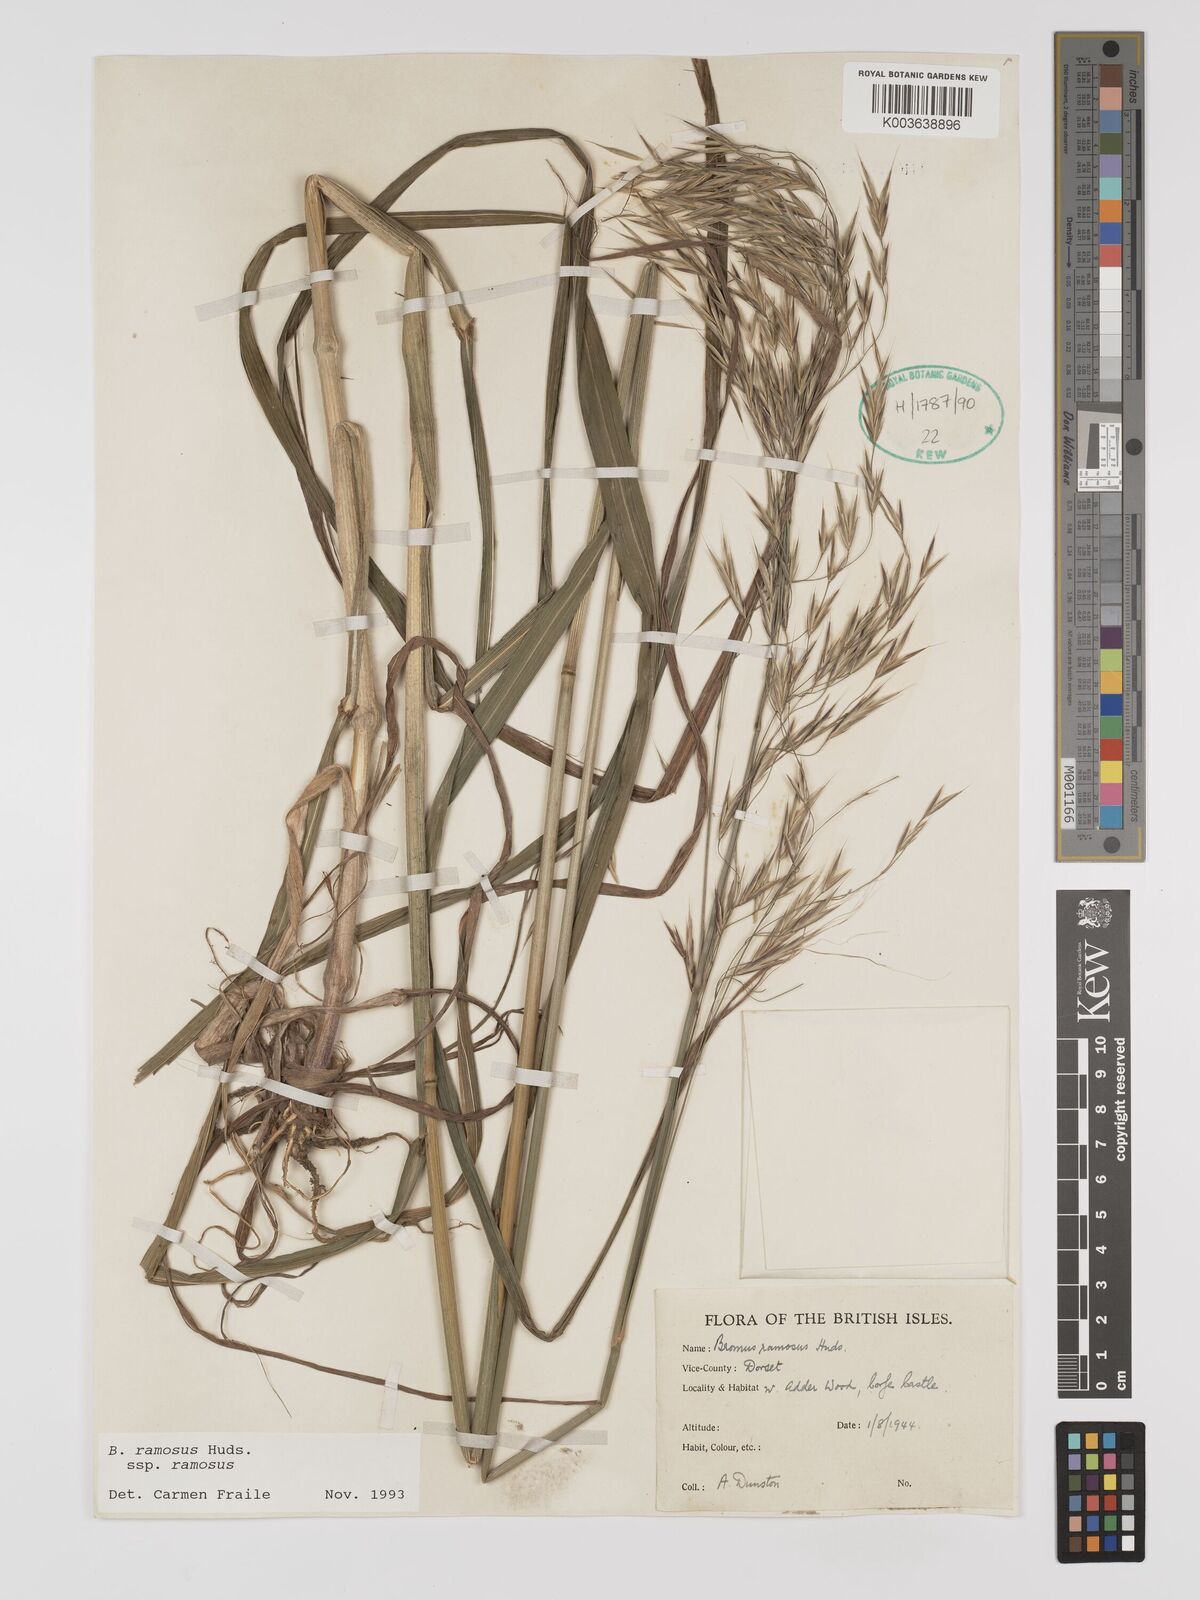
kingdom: Plantae
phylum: Tracheophyta
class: Liliopsida
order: Poales
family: Poaceae
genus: Brachypodium
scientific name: Brachypodium retusum
